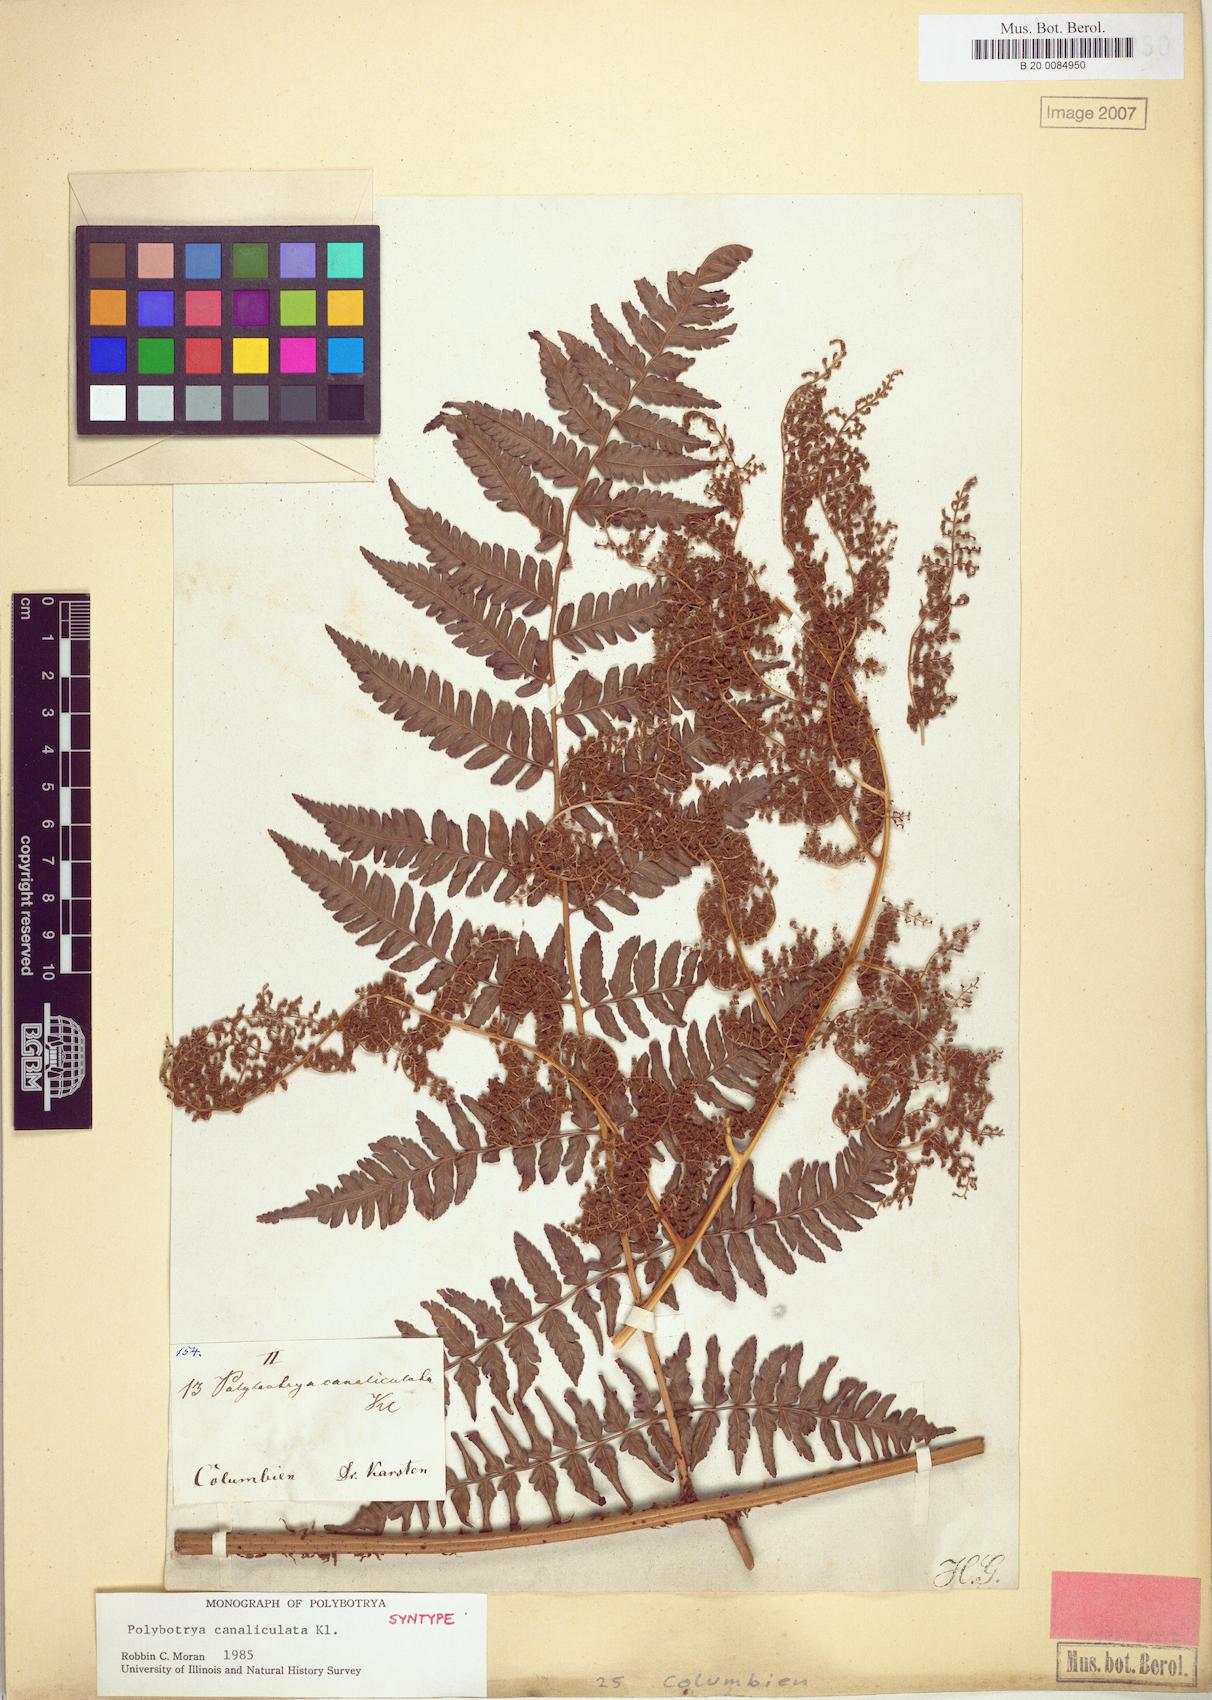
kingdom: Plantae
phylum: Tracheophyta
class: Polypodiopsida
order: Polypodiales
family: Dryopteridaceae
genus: Polybotrya
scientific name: Polybotrya canaliculata
